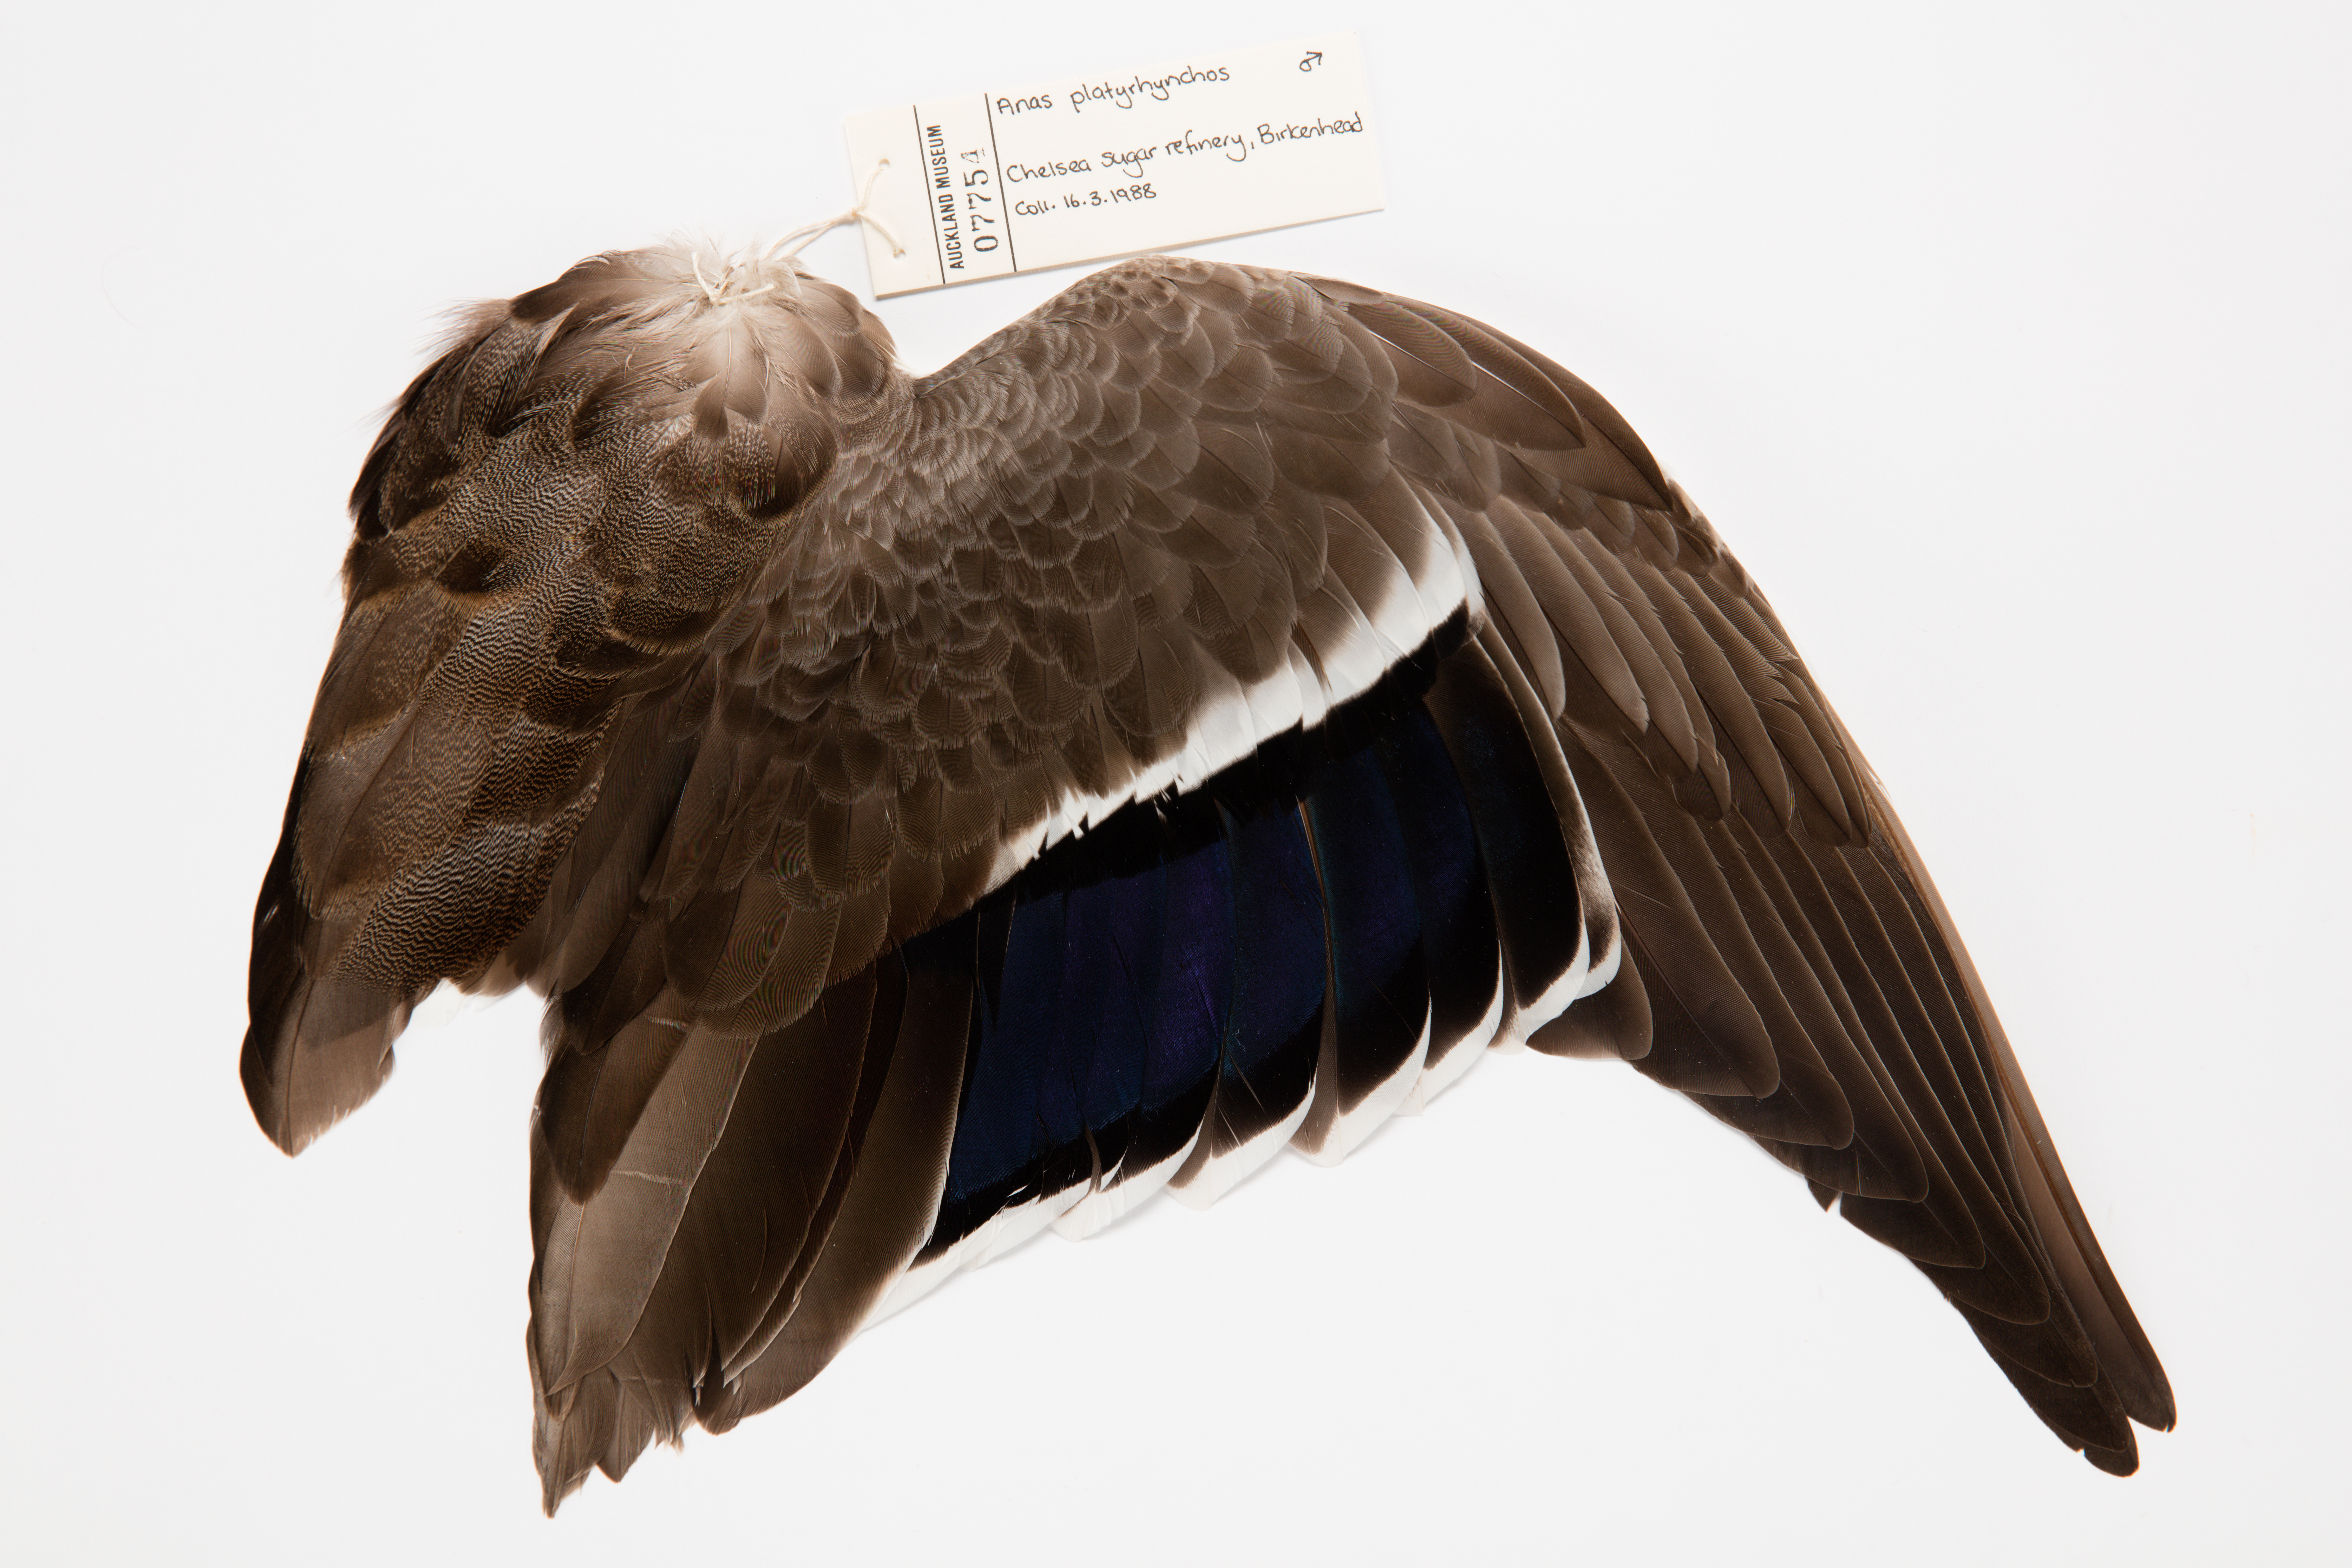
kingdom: Animalia
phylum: Chordata
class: Aves
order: Anseriformes
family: Anatidae
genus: Anas
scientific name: Anas platyrhynchos
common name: Mallard
